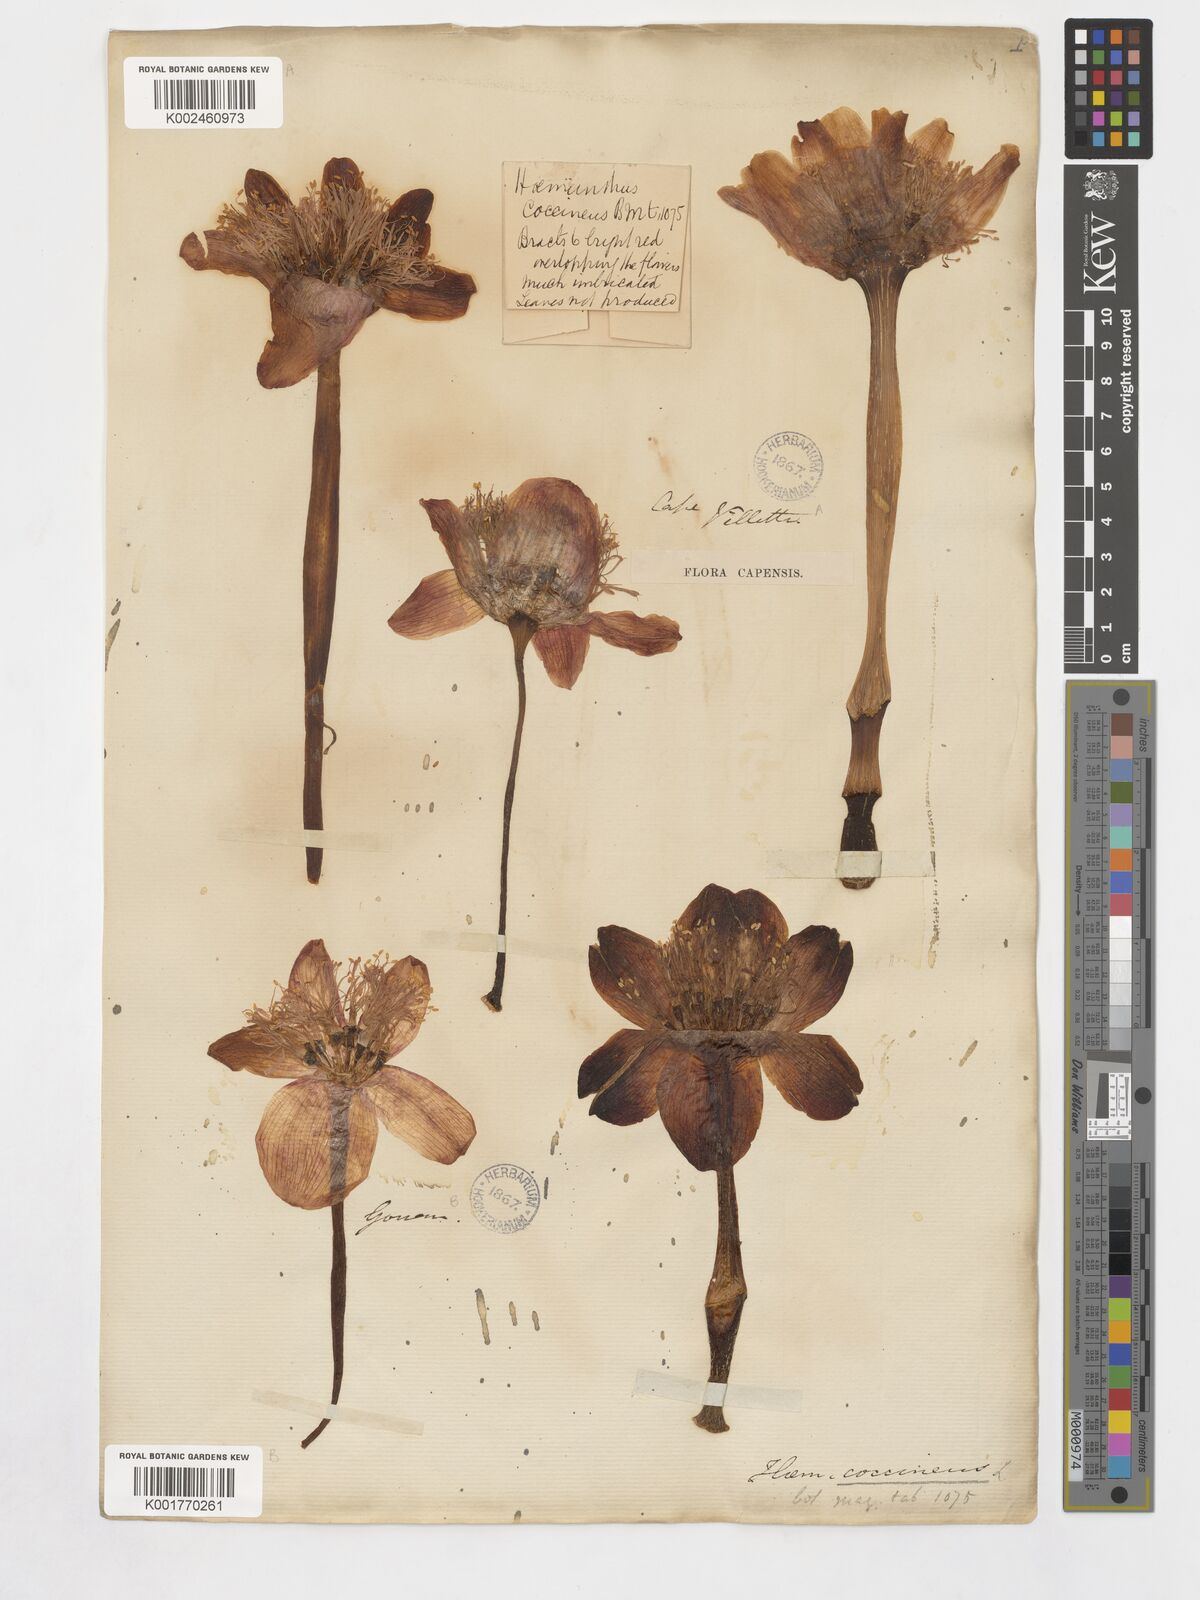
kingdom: Plantae
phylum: Tracheophyta
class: Liliopsida
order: Asparagales
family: Amaryllidaceae
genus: Haemanthus
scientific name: Haemanthus coccineus
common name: Cape-tulip
